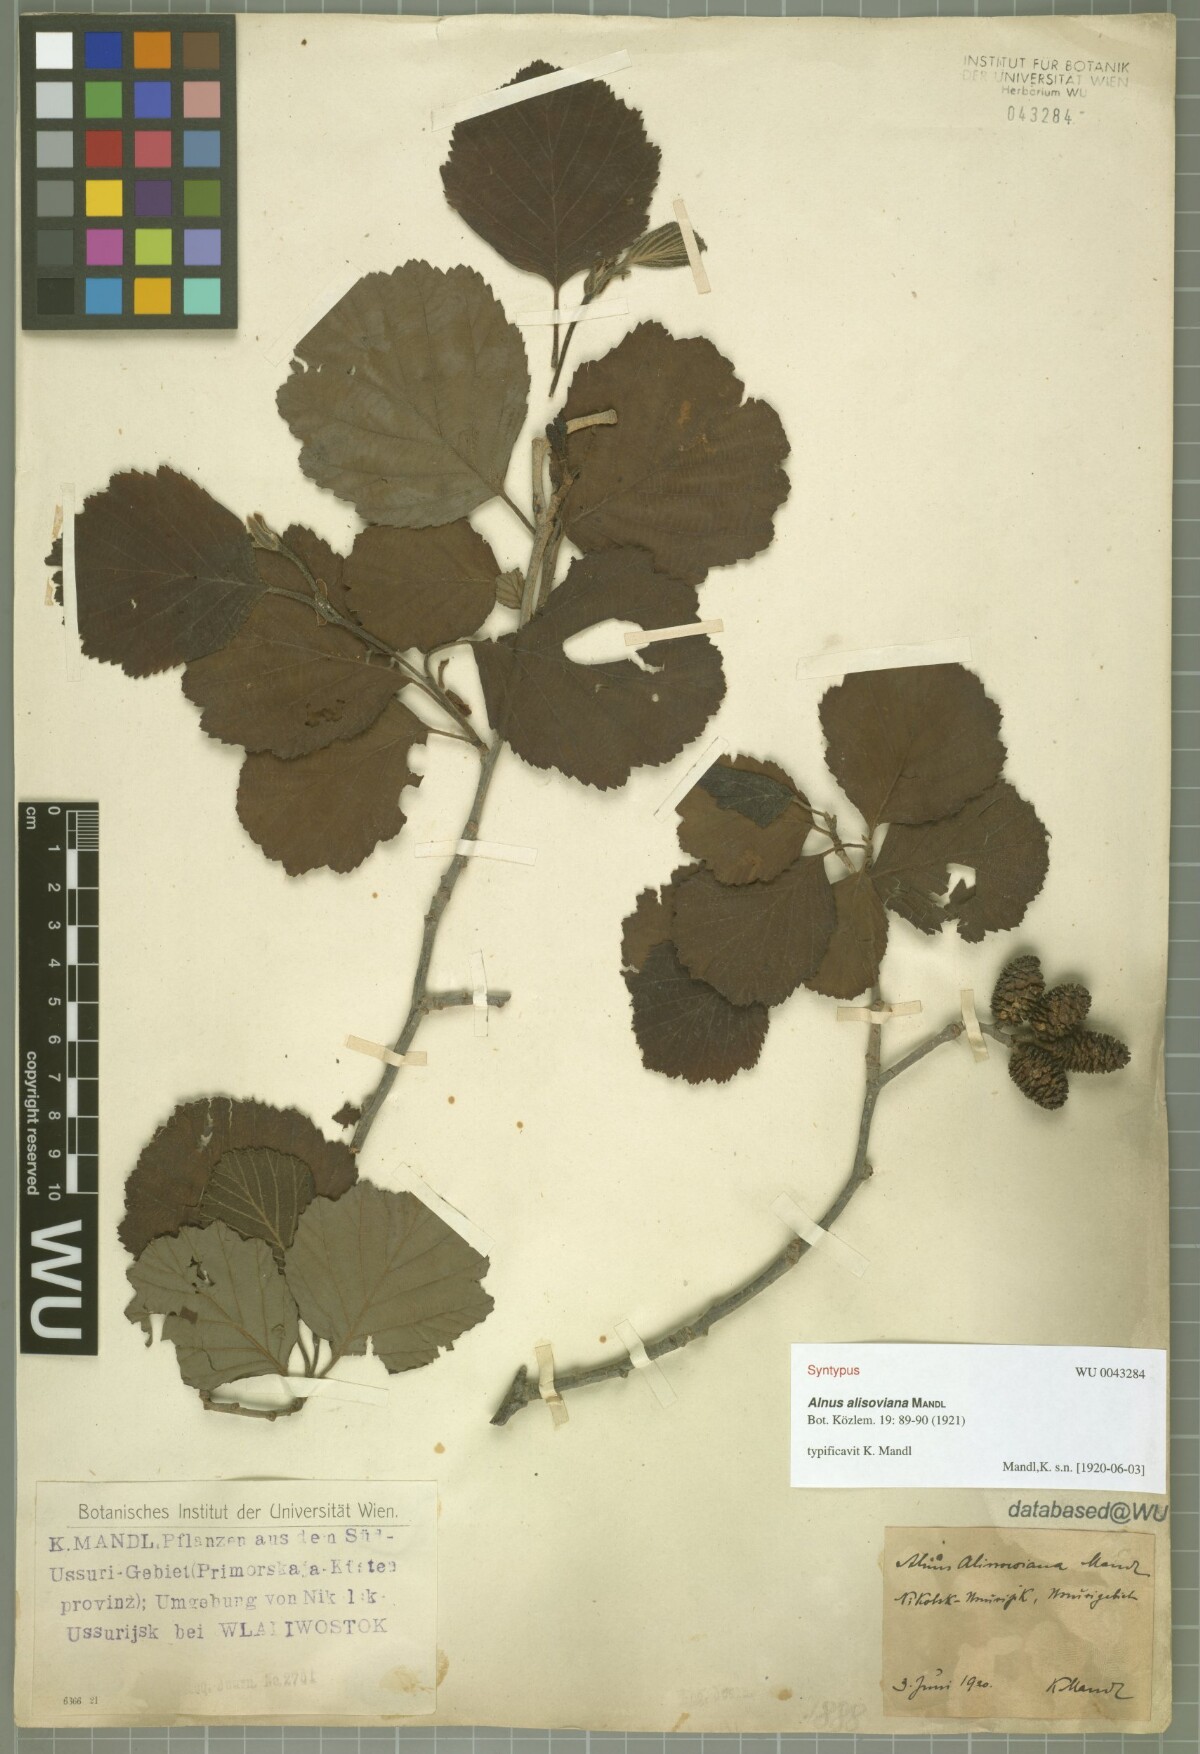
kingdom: Plantae
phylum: Tracheophyta
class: Magnoliopsida
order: Fagales
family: Betulaceae
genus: Alnus
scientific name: Alnus incana
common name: Grey alder
